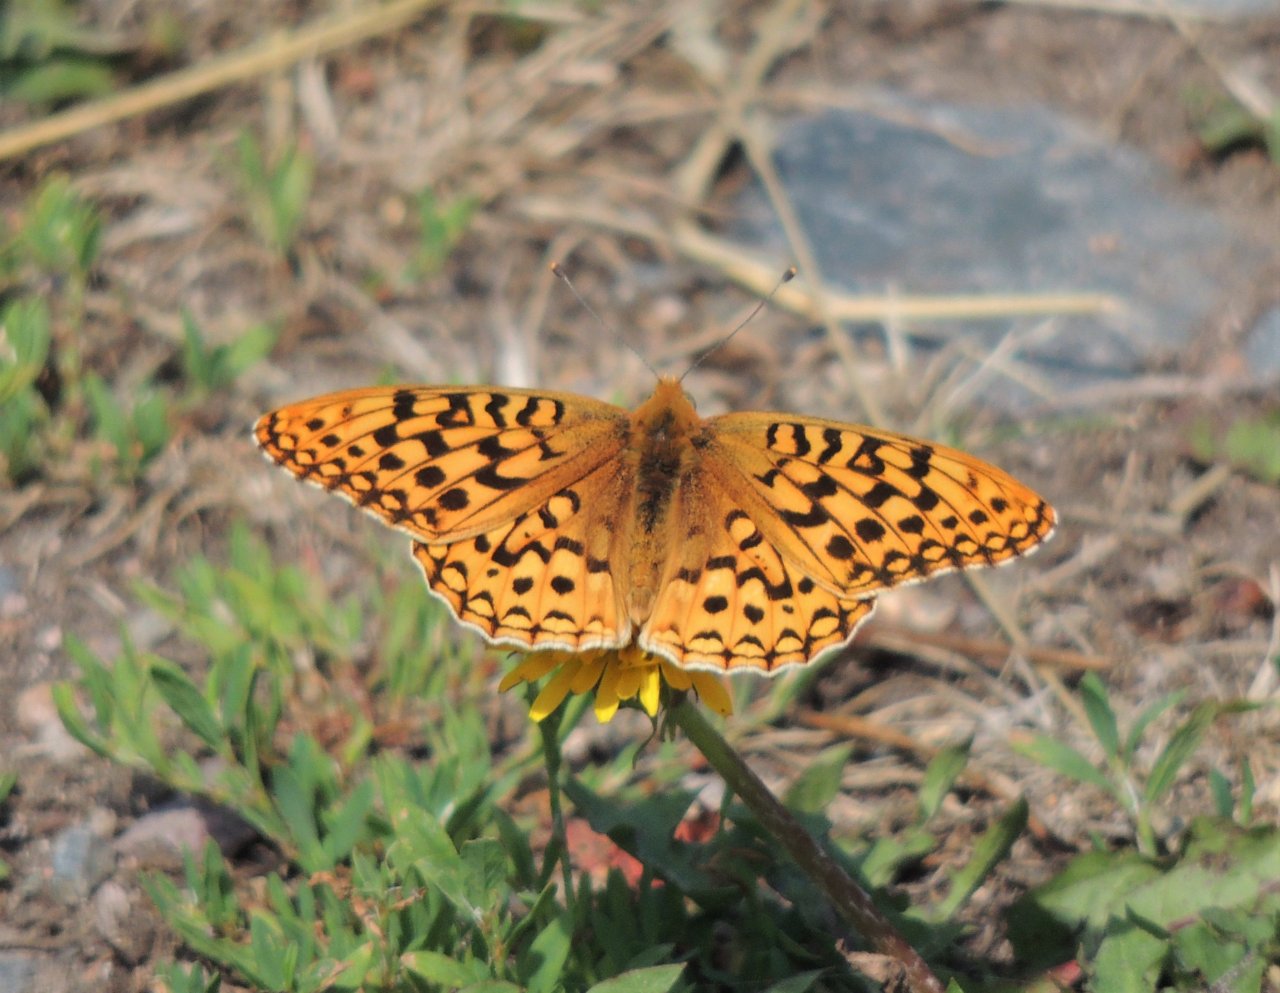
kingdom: Animalia
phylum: Arthropoda
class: Insecta
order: Lepidoptera
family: Nymphalidae
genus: Speyeria
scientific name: Speyeria coronis
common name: Coronis Fritillary
